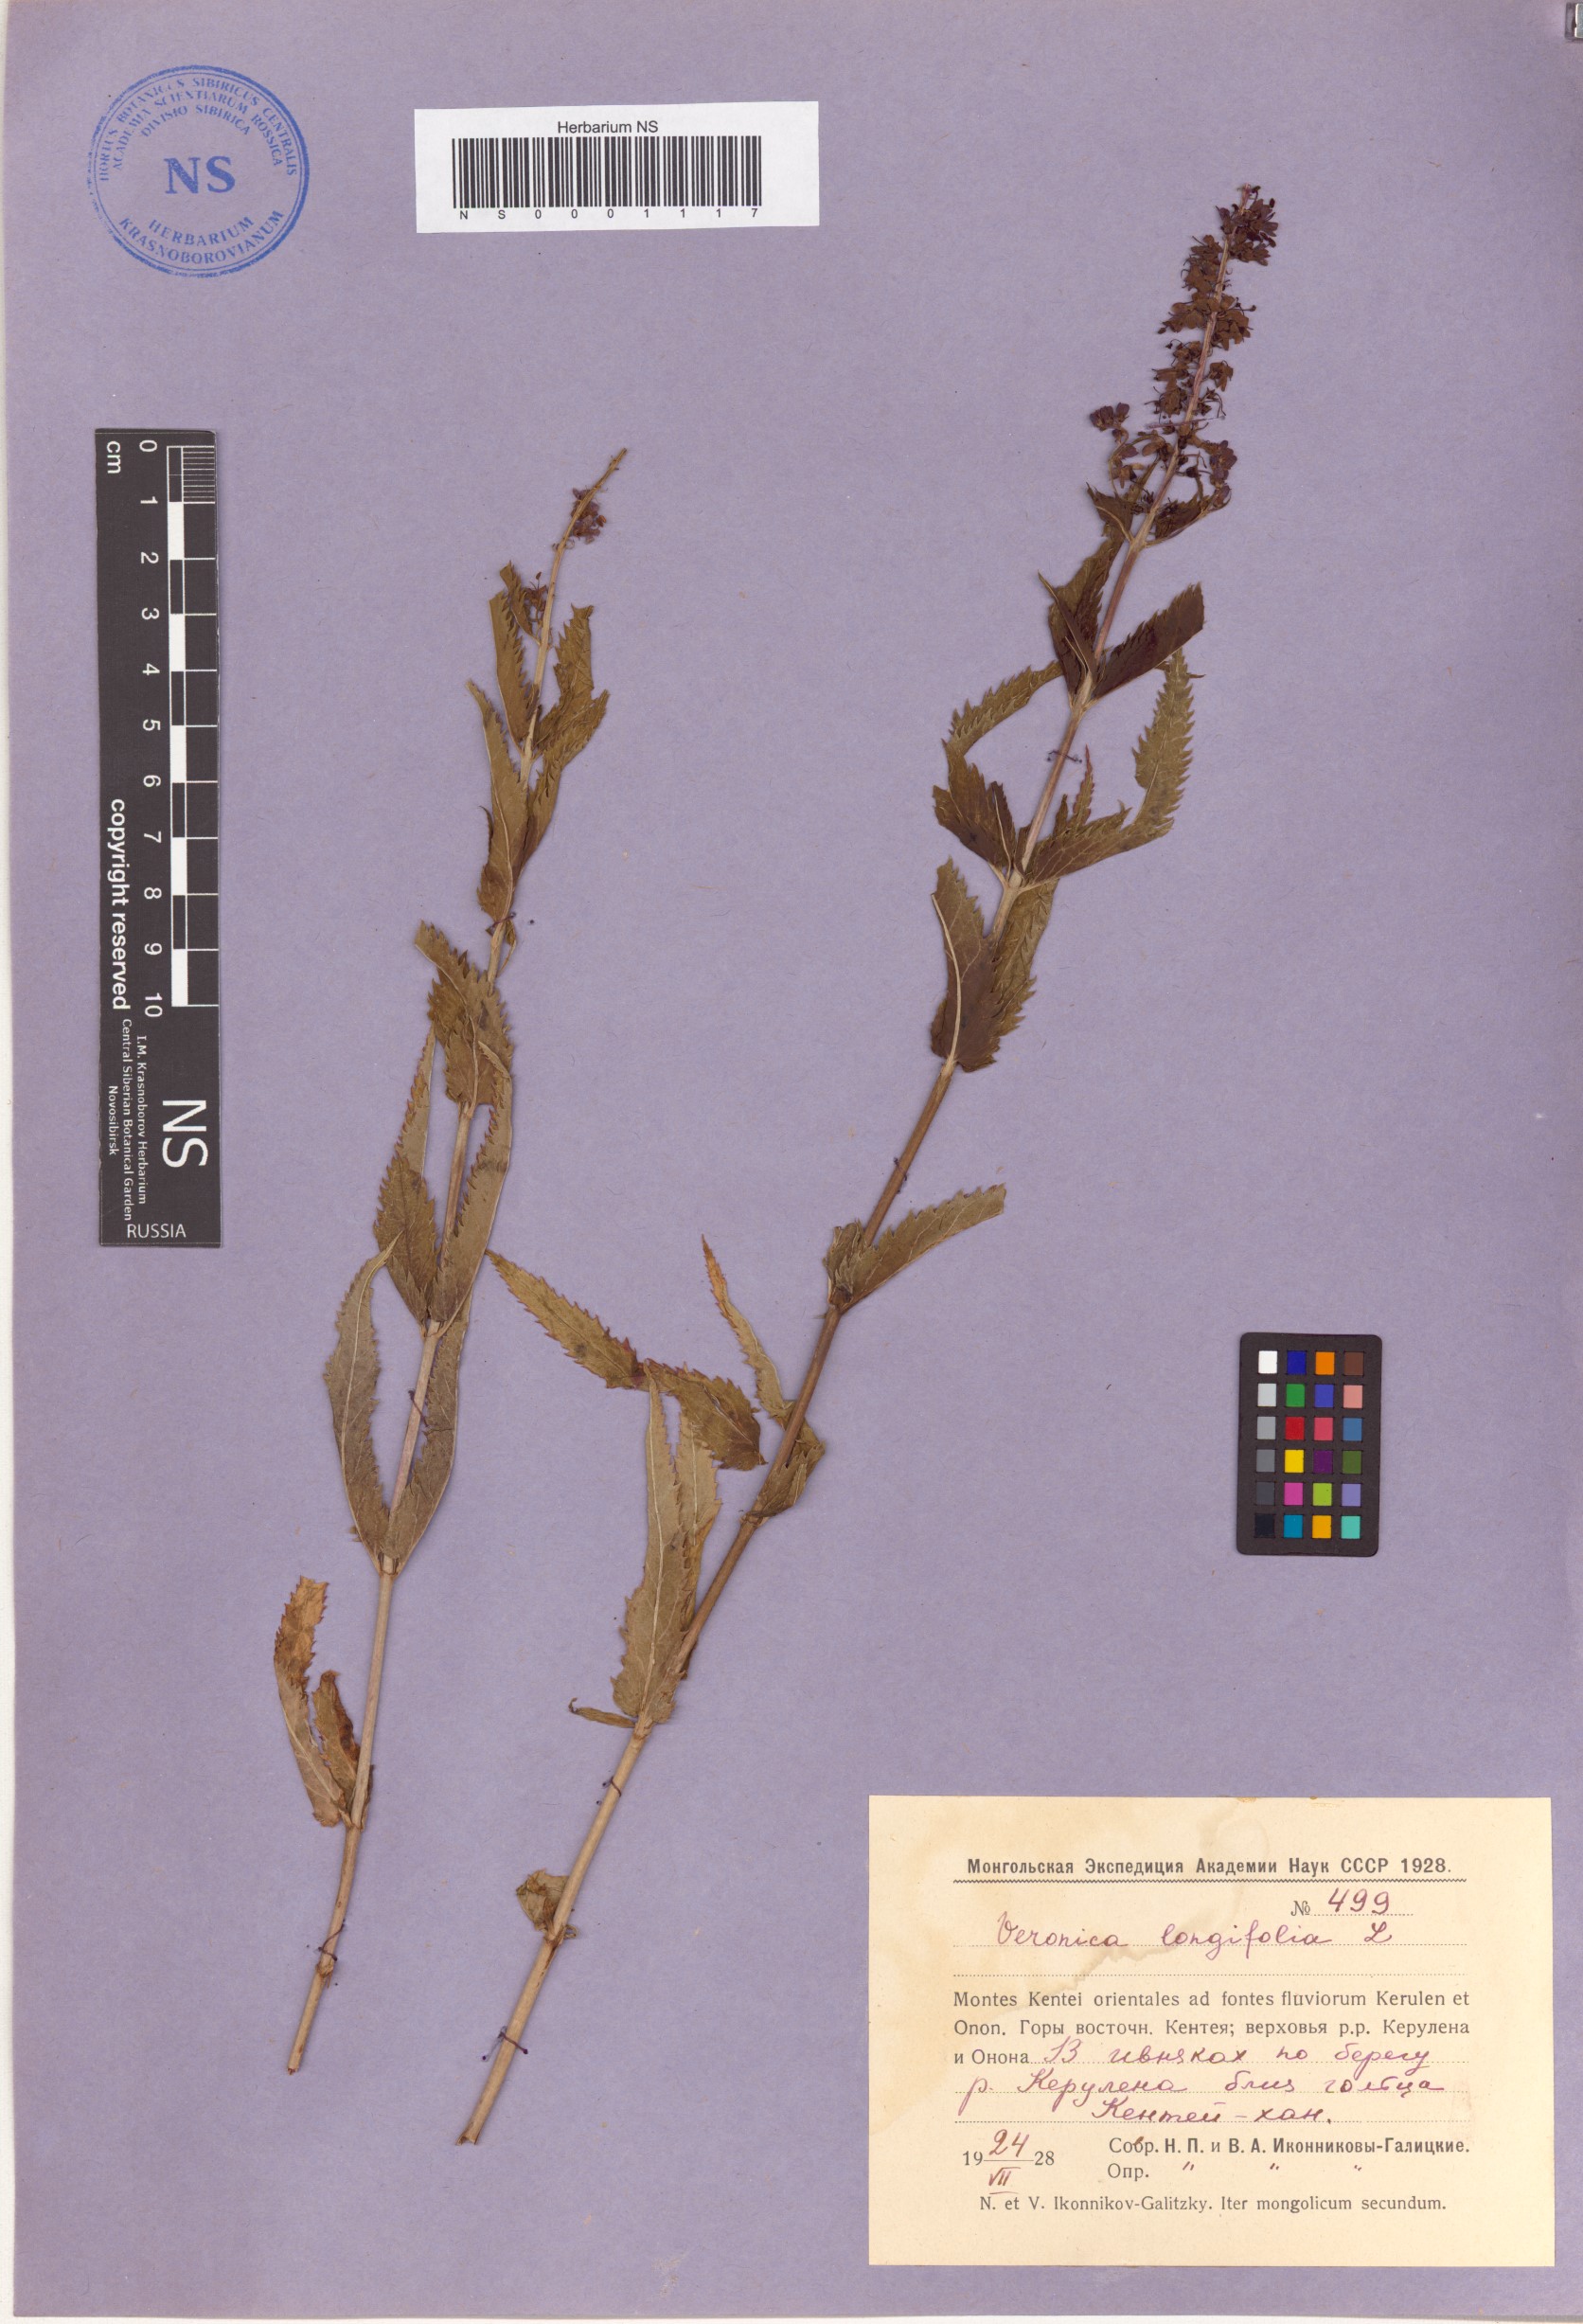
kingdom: Plantae
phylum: Tracheophyta
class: Magnoliopsida
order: Lamiales
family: Plantaginaceae
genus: Veronica
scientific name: Veronica longifolia
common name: Garden speedwell
